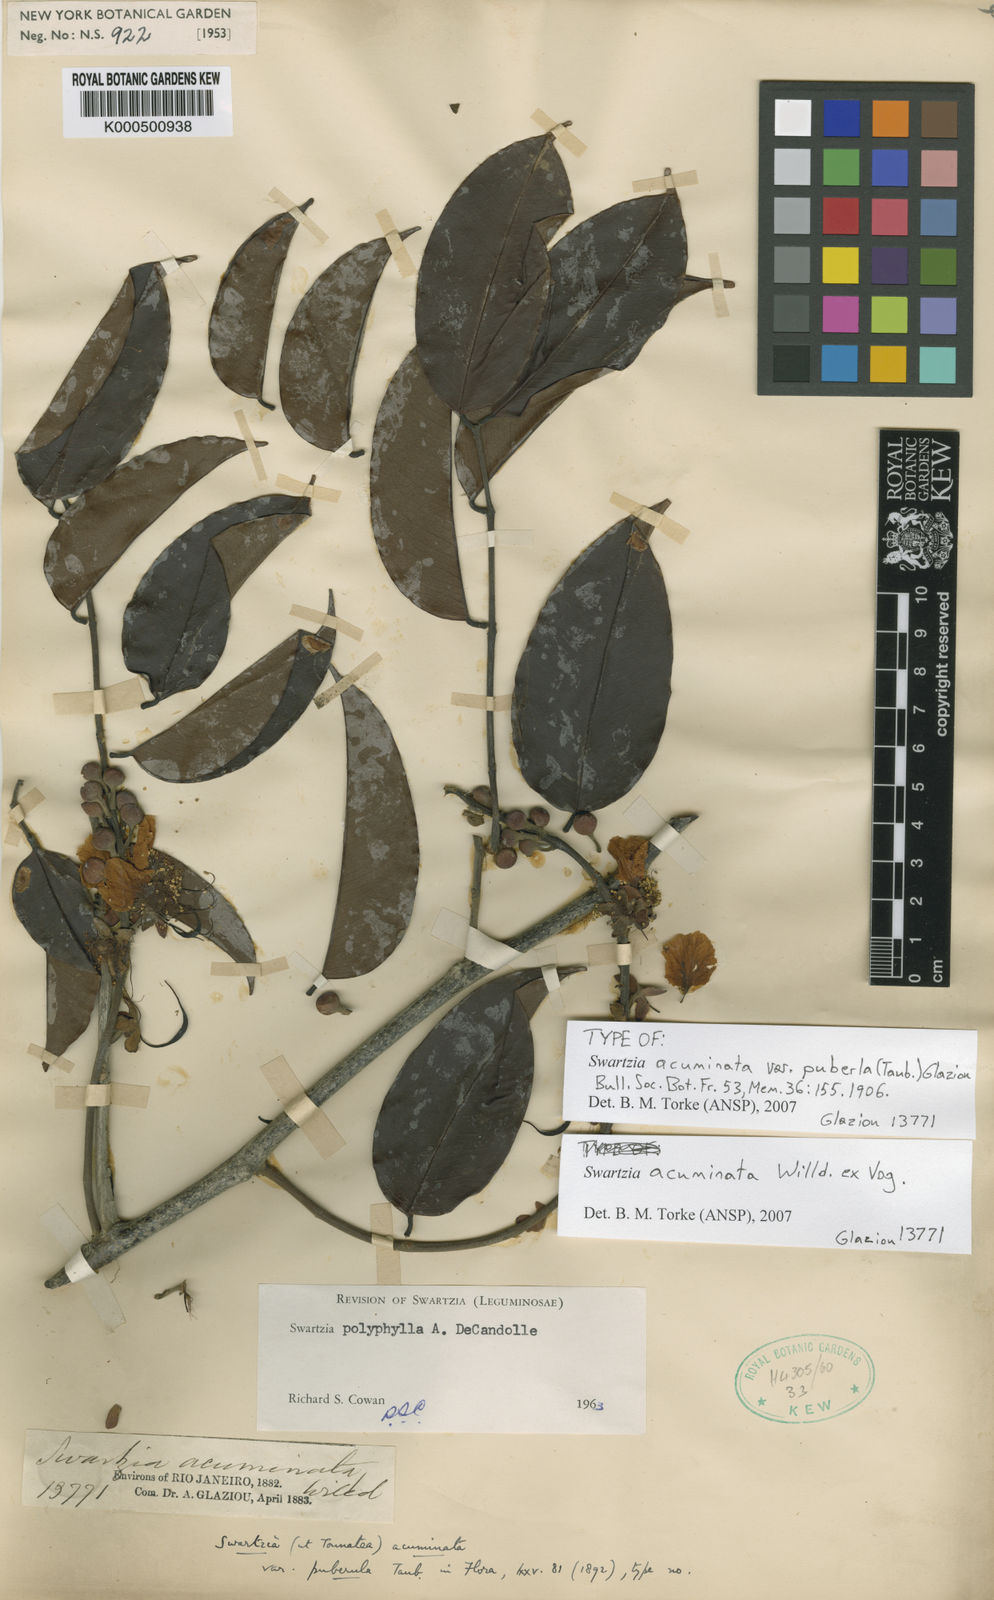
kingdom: Plantae
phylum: Tracheophyta
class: Magnoliopsida
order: Fabales
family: Fabaceae
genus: Swartzia
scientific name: Swartzia acuminata
